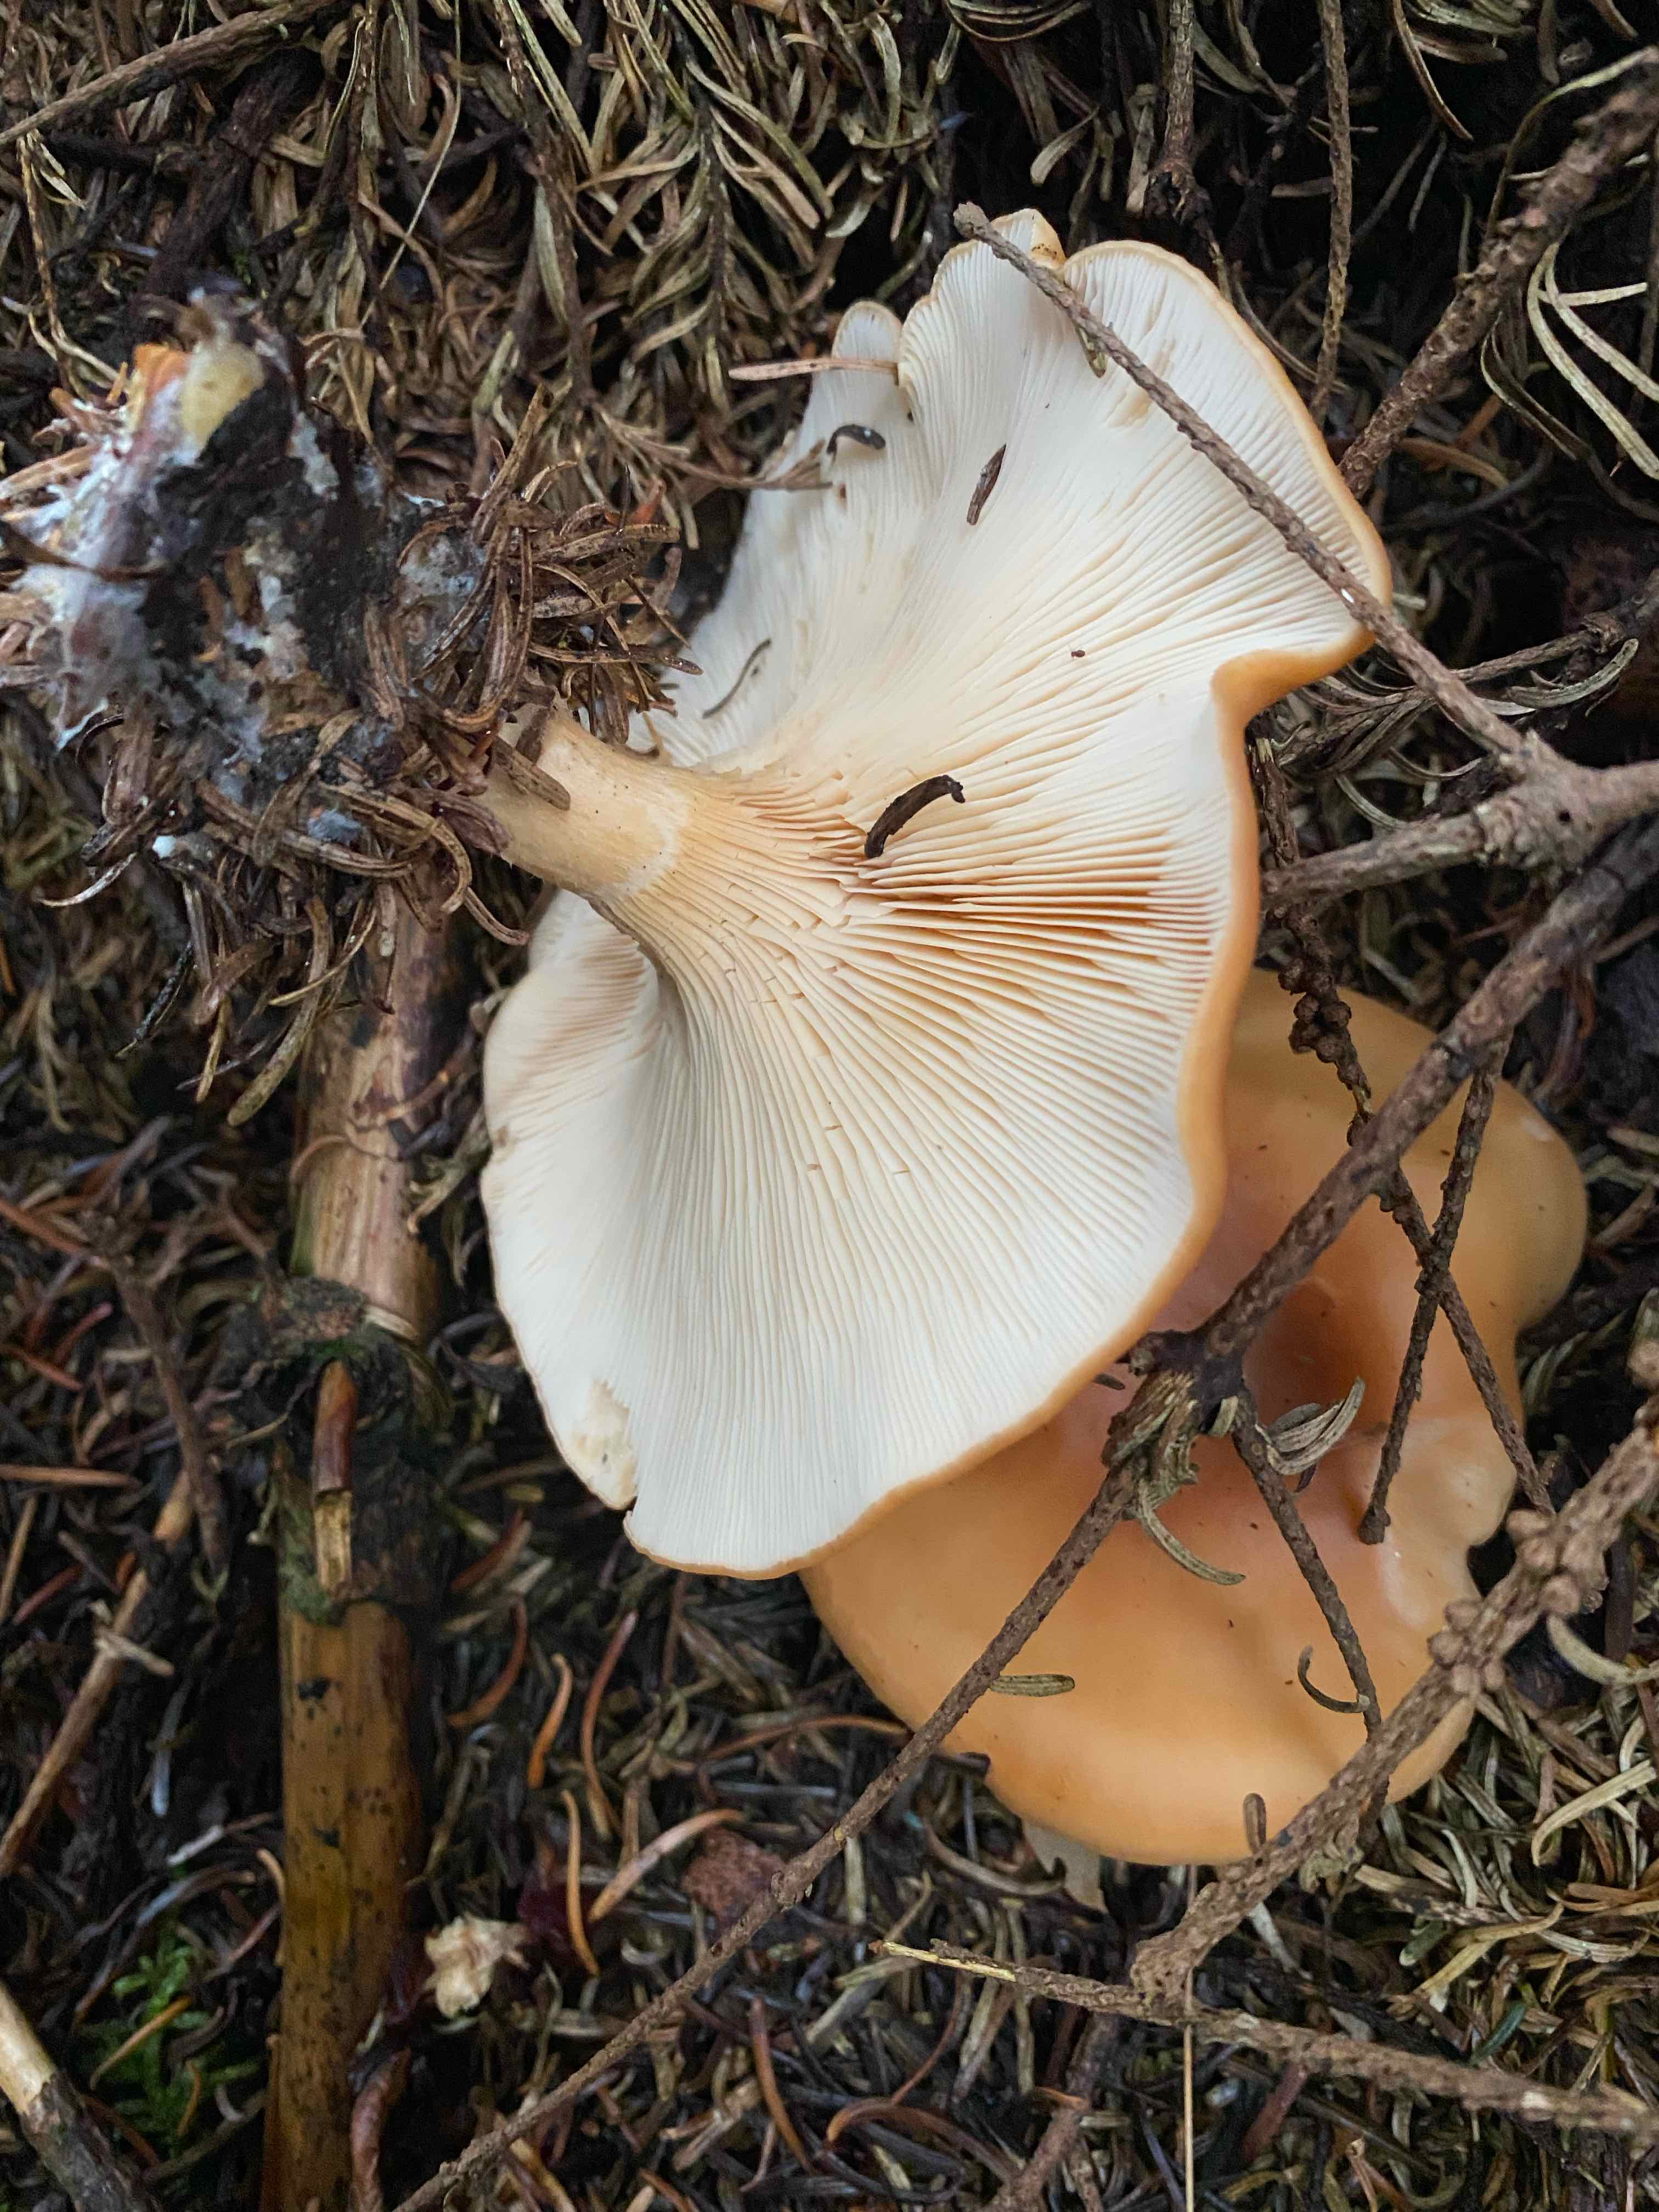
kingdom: Fungi
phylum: Basidiomycota
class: Agaricomycetes
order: Agaricales
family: Tricholomataceae
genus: Paralepista
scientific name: Paralepista flaccida
